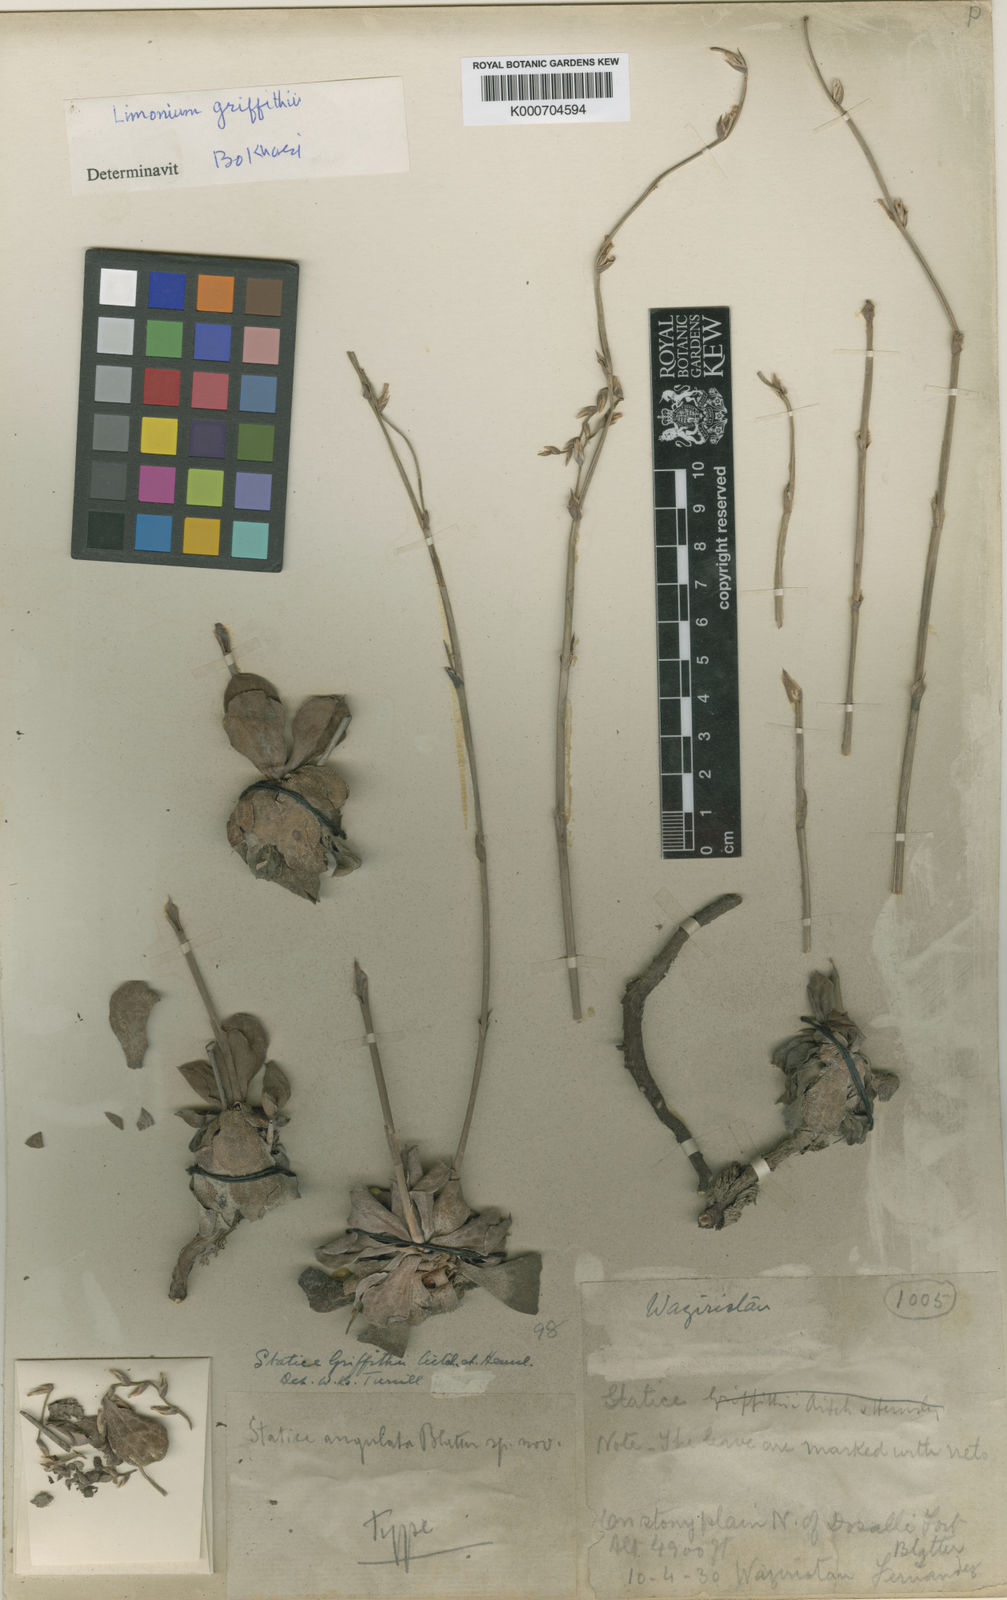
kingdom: Plantae
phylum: Tracheophyta
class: Magnoliopsida
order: Caryophyllales
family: Plumbaginaceae
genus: Dictyolimon
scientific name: Dictyolimon griffithii
